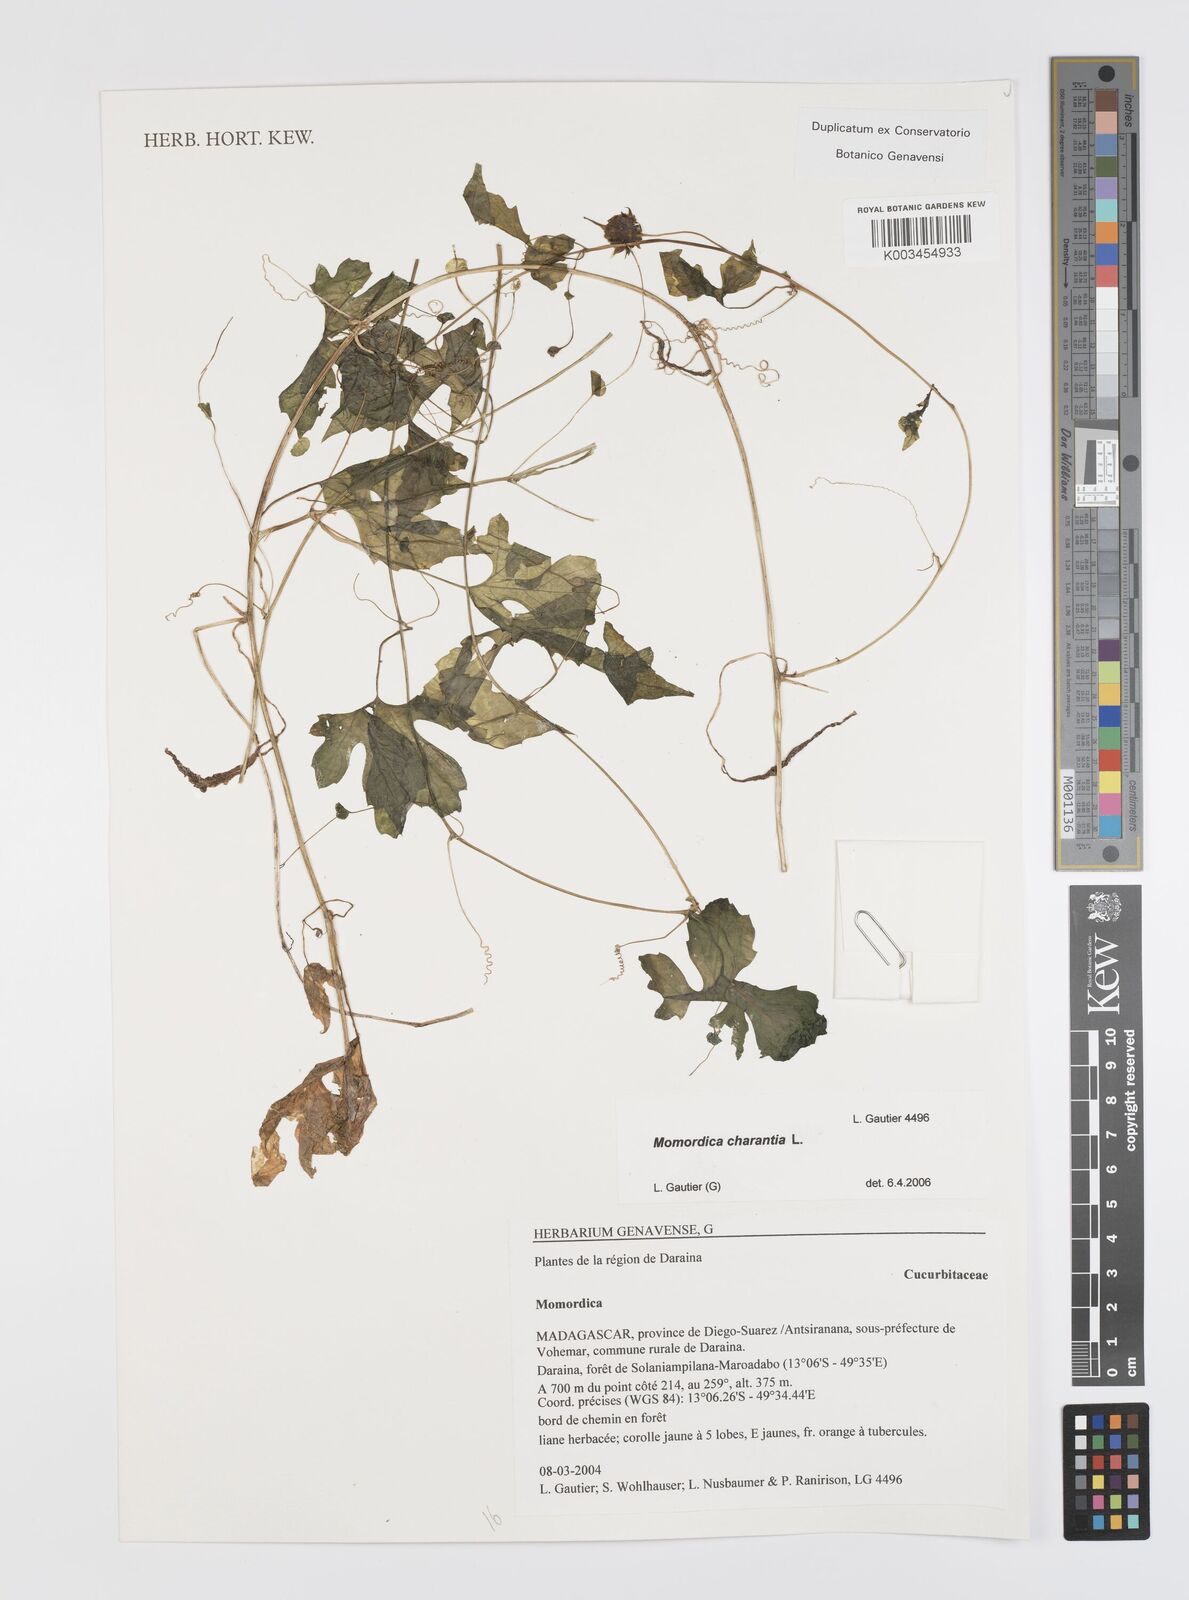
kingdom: Plantae
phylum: Tracheophyta
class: Magnoliopsida
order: Cucurbitales
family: Cucurbitaceae
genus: Momordica
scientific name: Momordica charantia
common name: Balsampear
